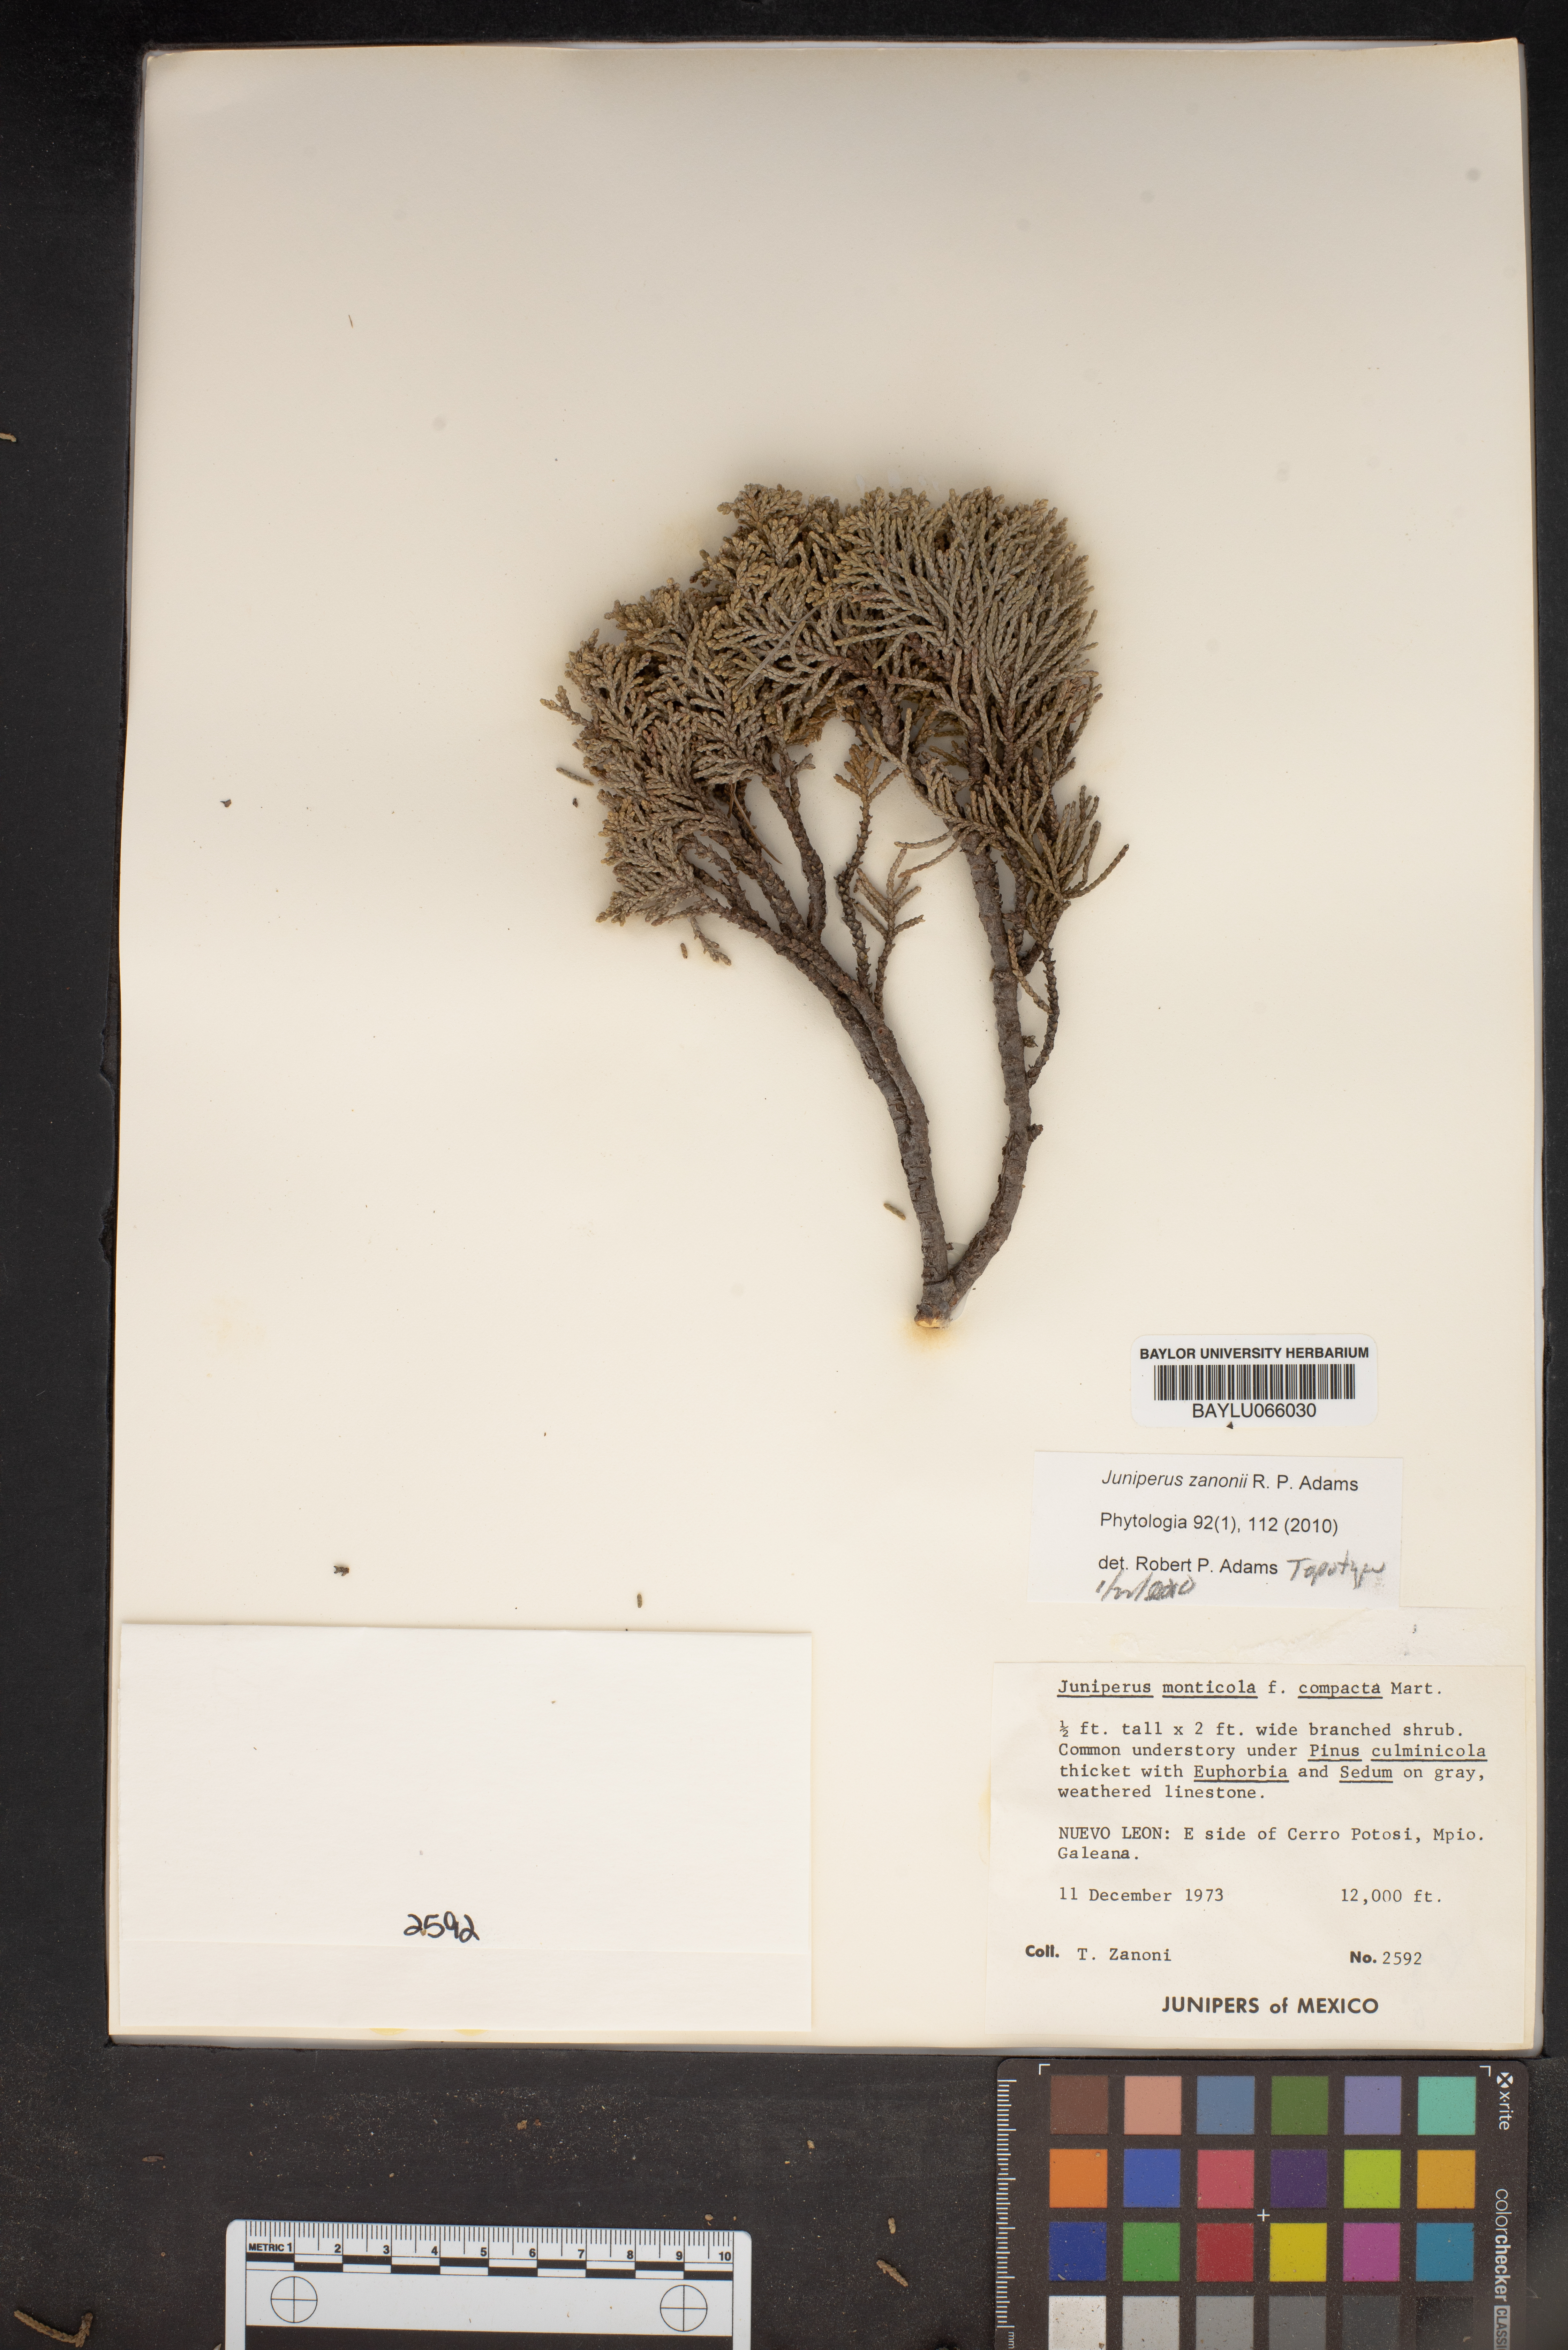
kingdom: Plantae
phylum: Tracheophyta
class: Pinopsida
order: Pinales
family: Cupressaceae
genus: Juniperus
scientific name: Juniperus monticola
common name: Mexican juniper
